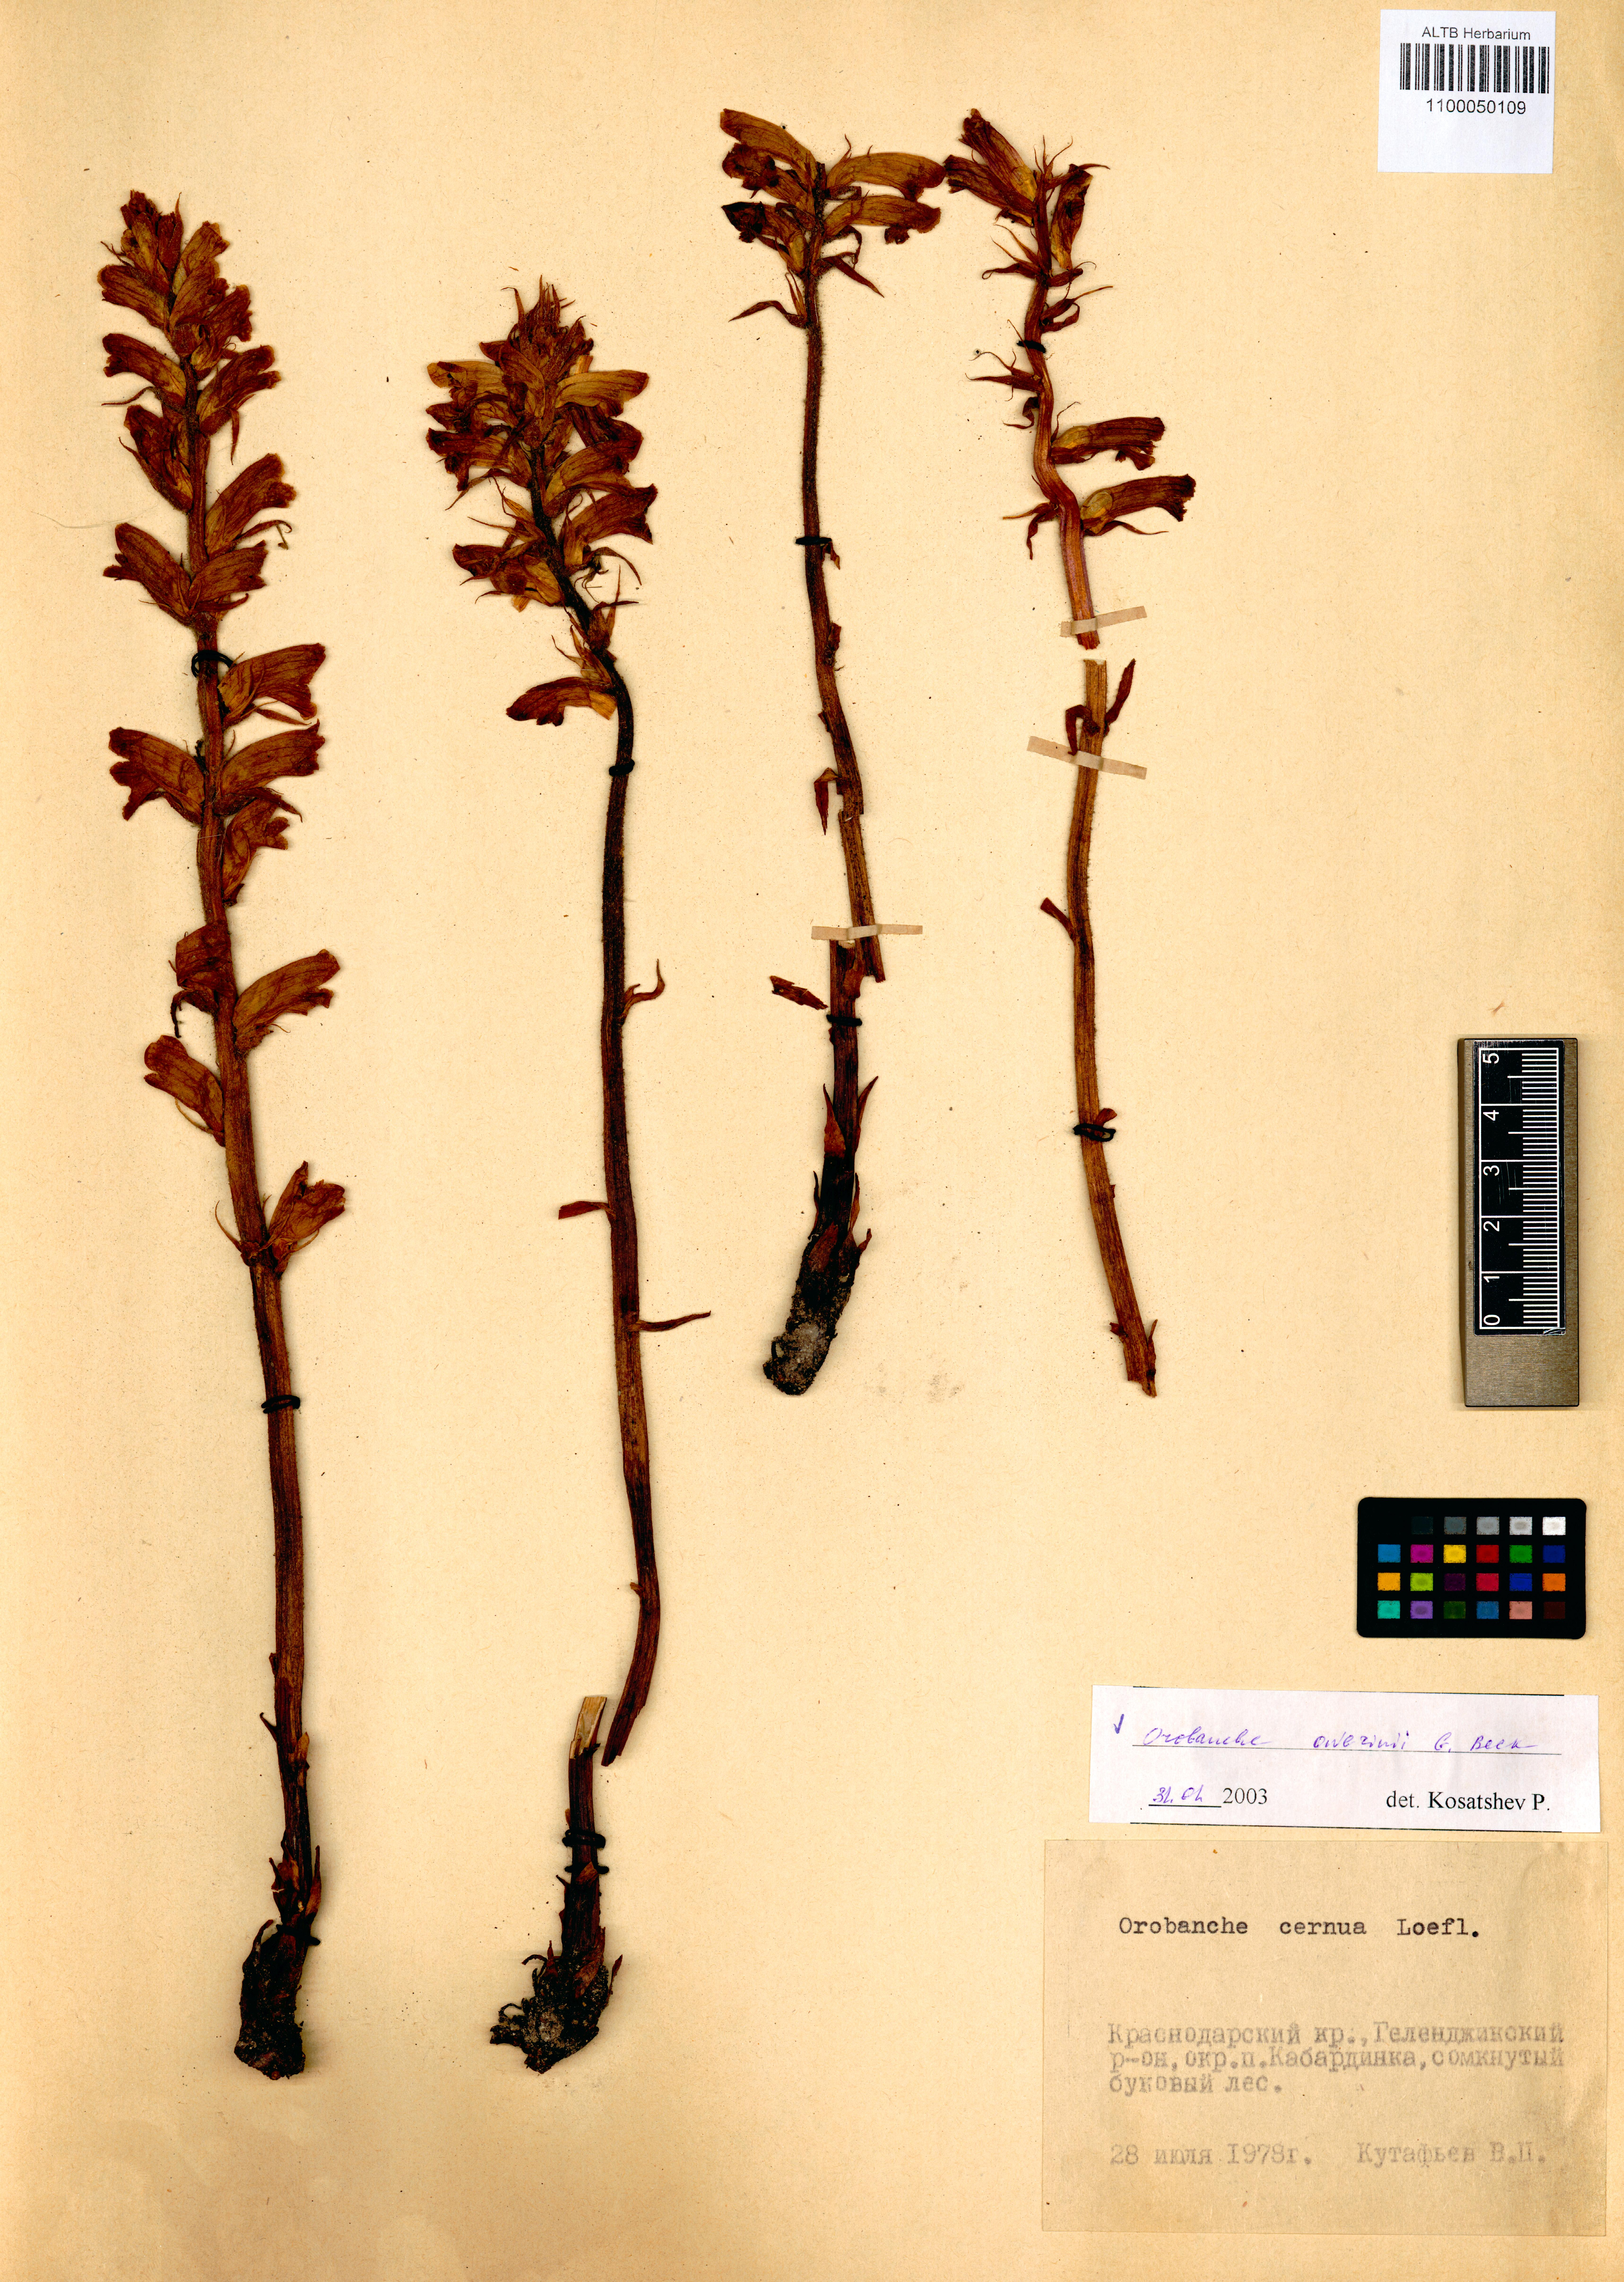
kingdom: Plantae
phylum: Tracheophyta
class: Magnoliopsida
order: Lamiales
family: Orobanchaceae
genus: Orobanche
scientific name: Orobanche owerinii
